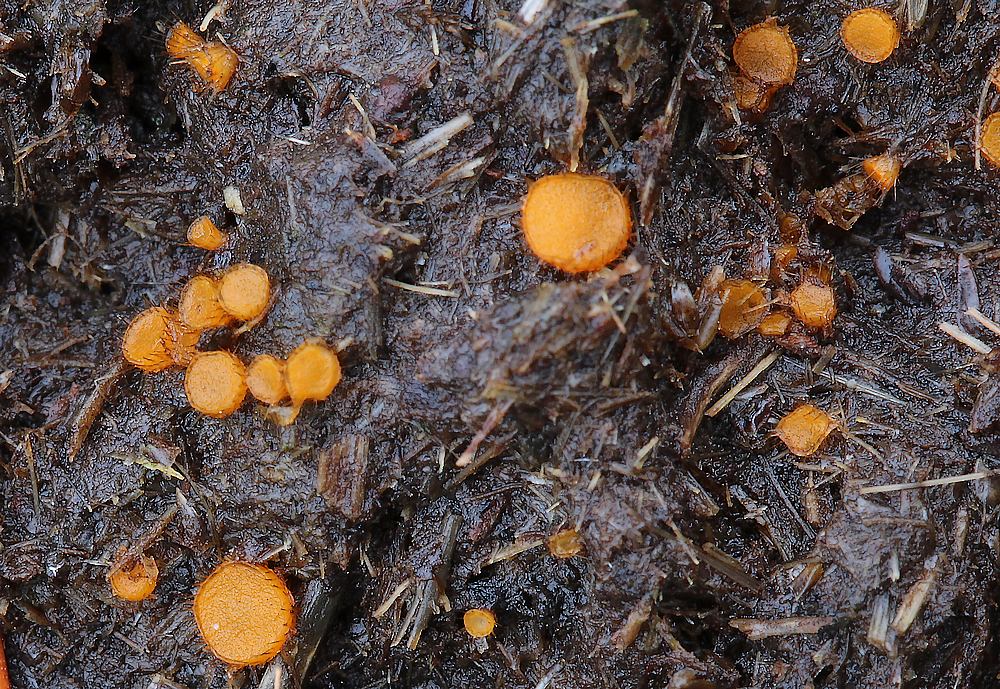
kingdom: Fungi
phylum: Ascomycota
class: Pezizomycetes
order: Pezizales
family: Pyronemataceae
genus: Cheilymenia
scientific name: Cheilymenia
